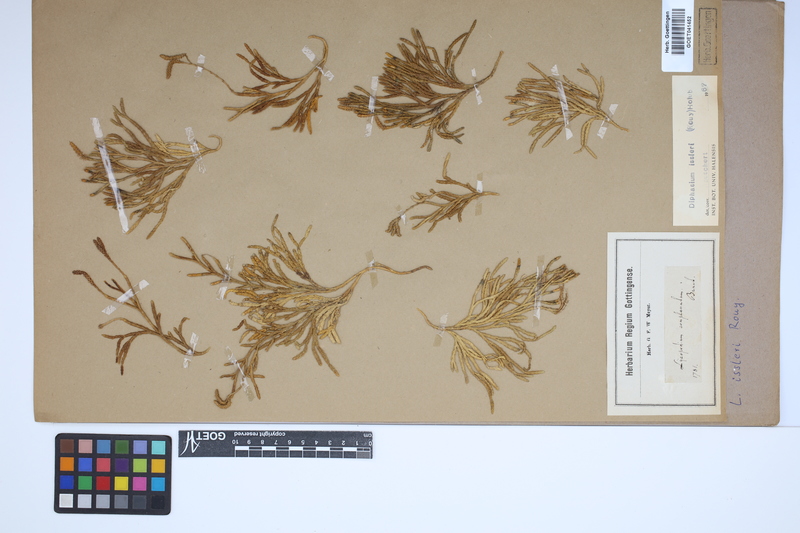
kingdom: Plantae
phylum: Tracheophyta
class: Lycopodiopsida
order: Lycopodiales
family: Lycopodiaceae
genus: Diphasiastrum
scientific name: Diphasiastrum issleri
